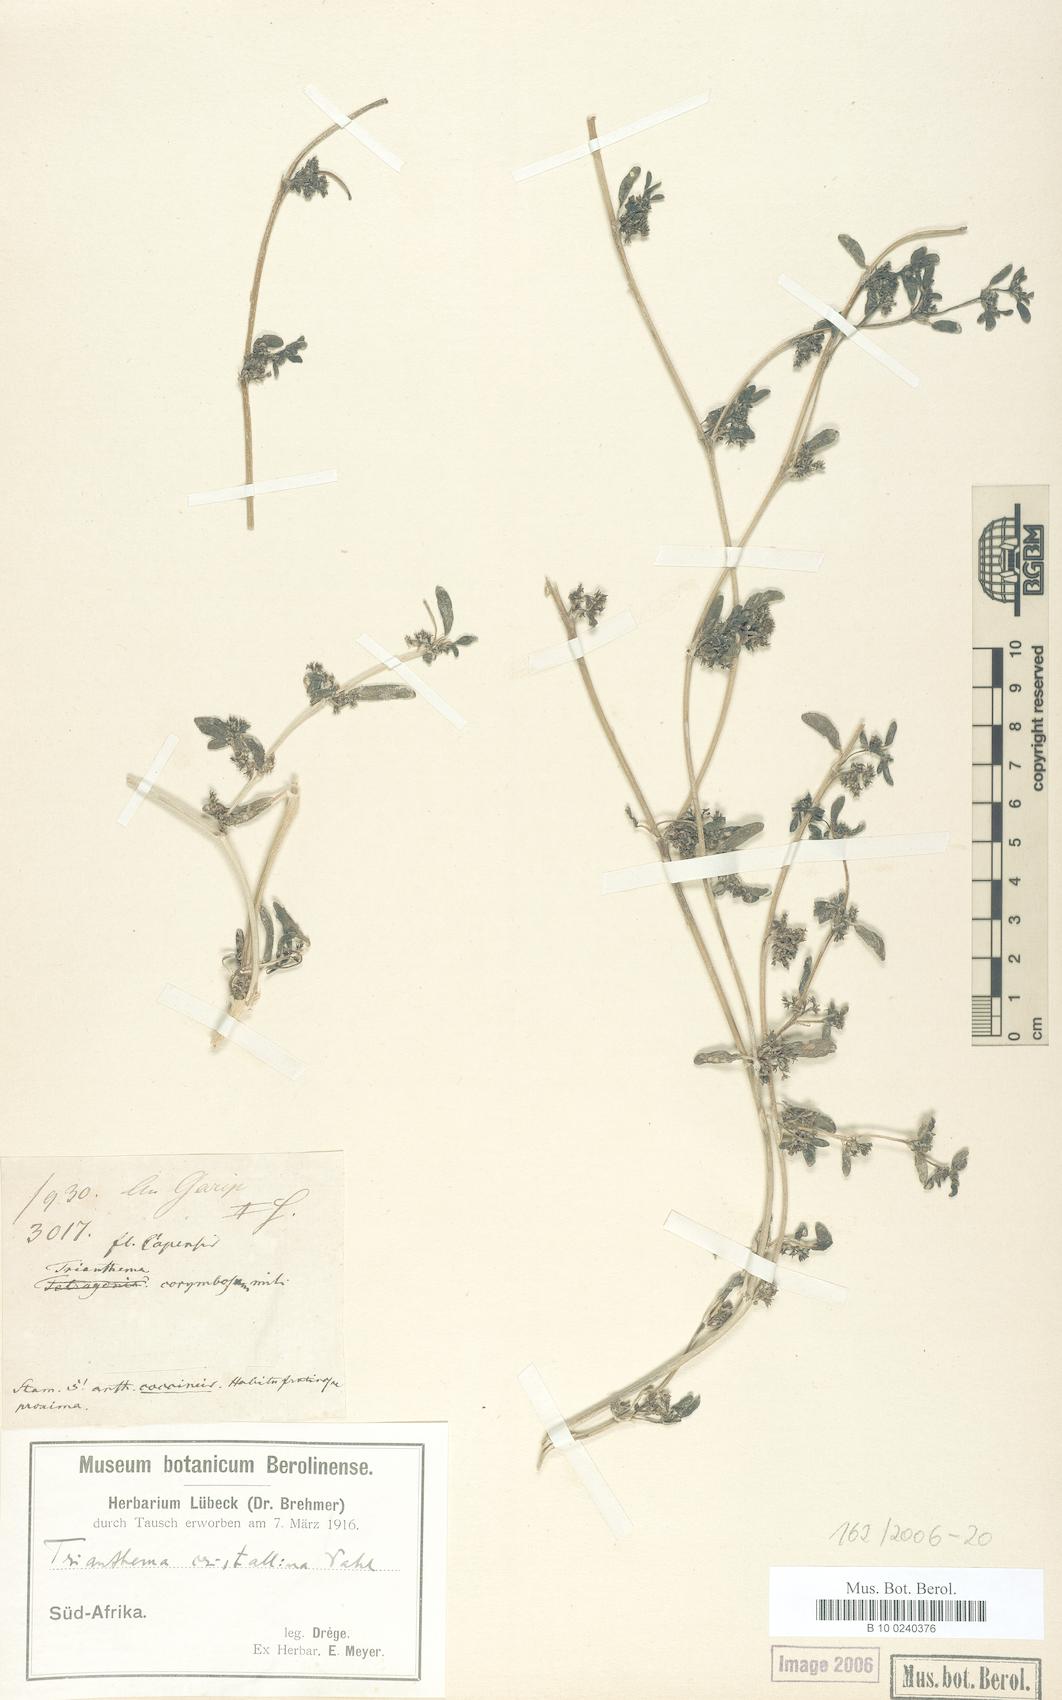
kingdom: Plantae
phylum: Tracheophyta
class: Magnoliopsida
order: Caryophyllales
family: Aizoaceae
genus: Trianthema
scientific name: Trianthema crystallinum
